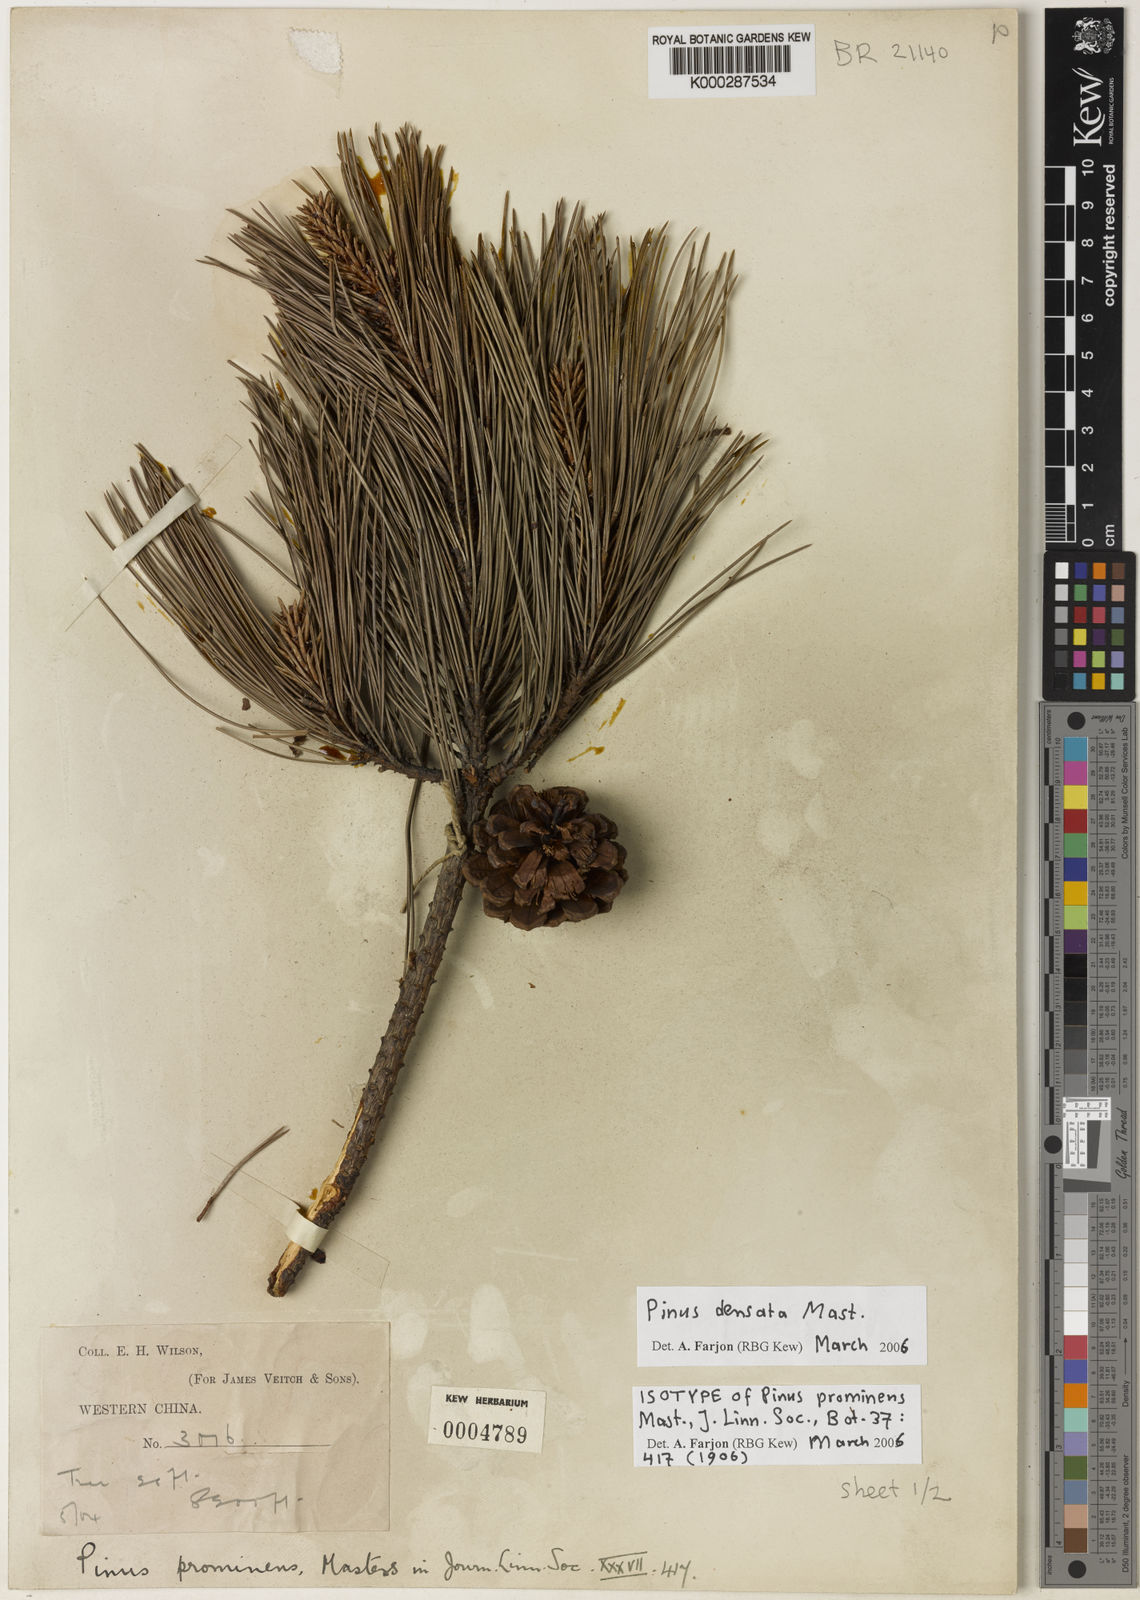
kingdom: Plantae
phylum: Tracheophyta
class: Pinopsida
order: Pinales
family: Pinaceae
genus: Pinus
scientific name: Pinus densata
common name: Gaoshan pine
